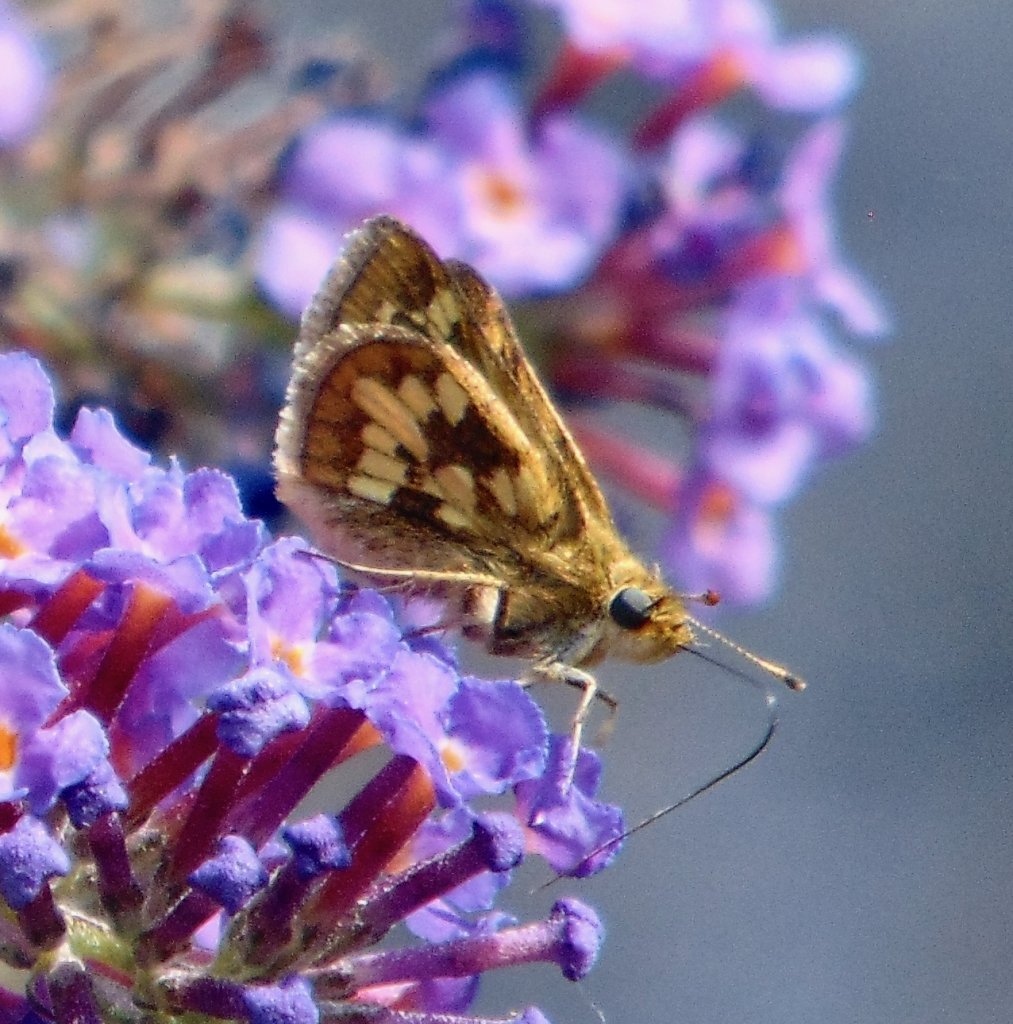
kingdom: Animalia
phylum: Arthropoda
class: Insecta
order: Lepidoptera
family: Hesperiidae
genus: Polites
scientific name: Polites coras
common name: Peck's Skipper
